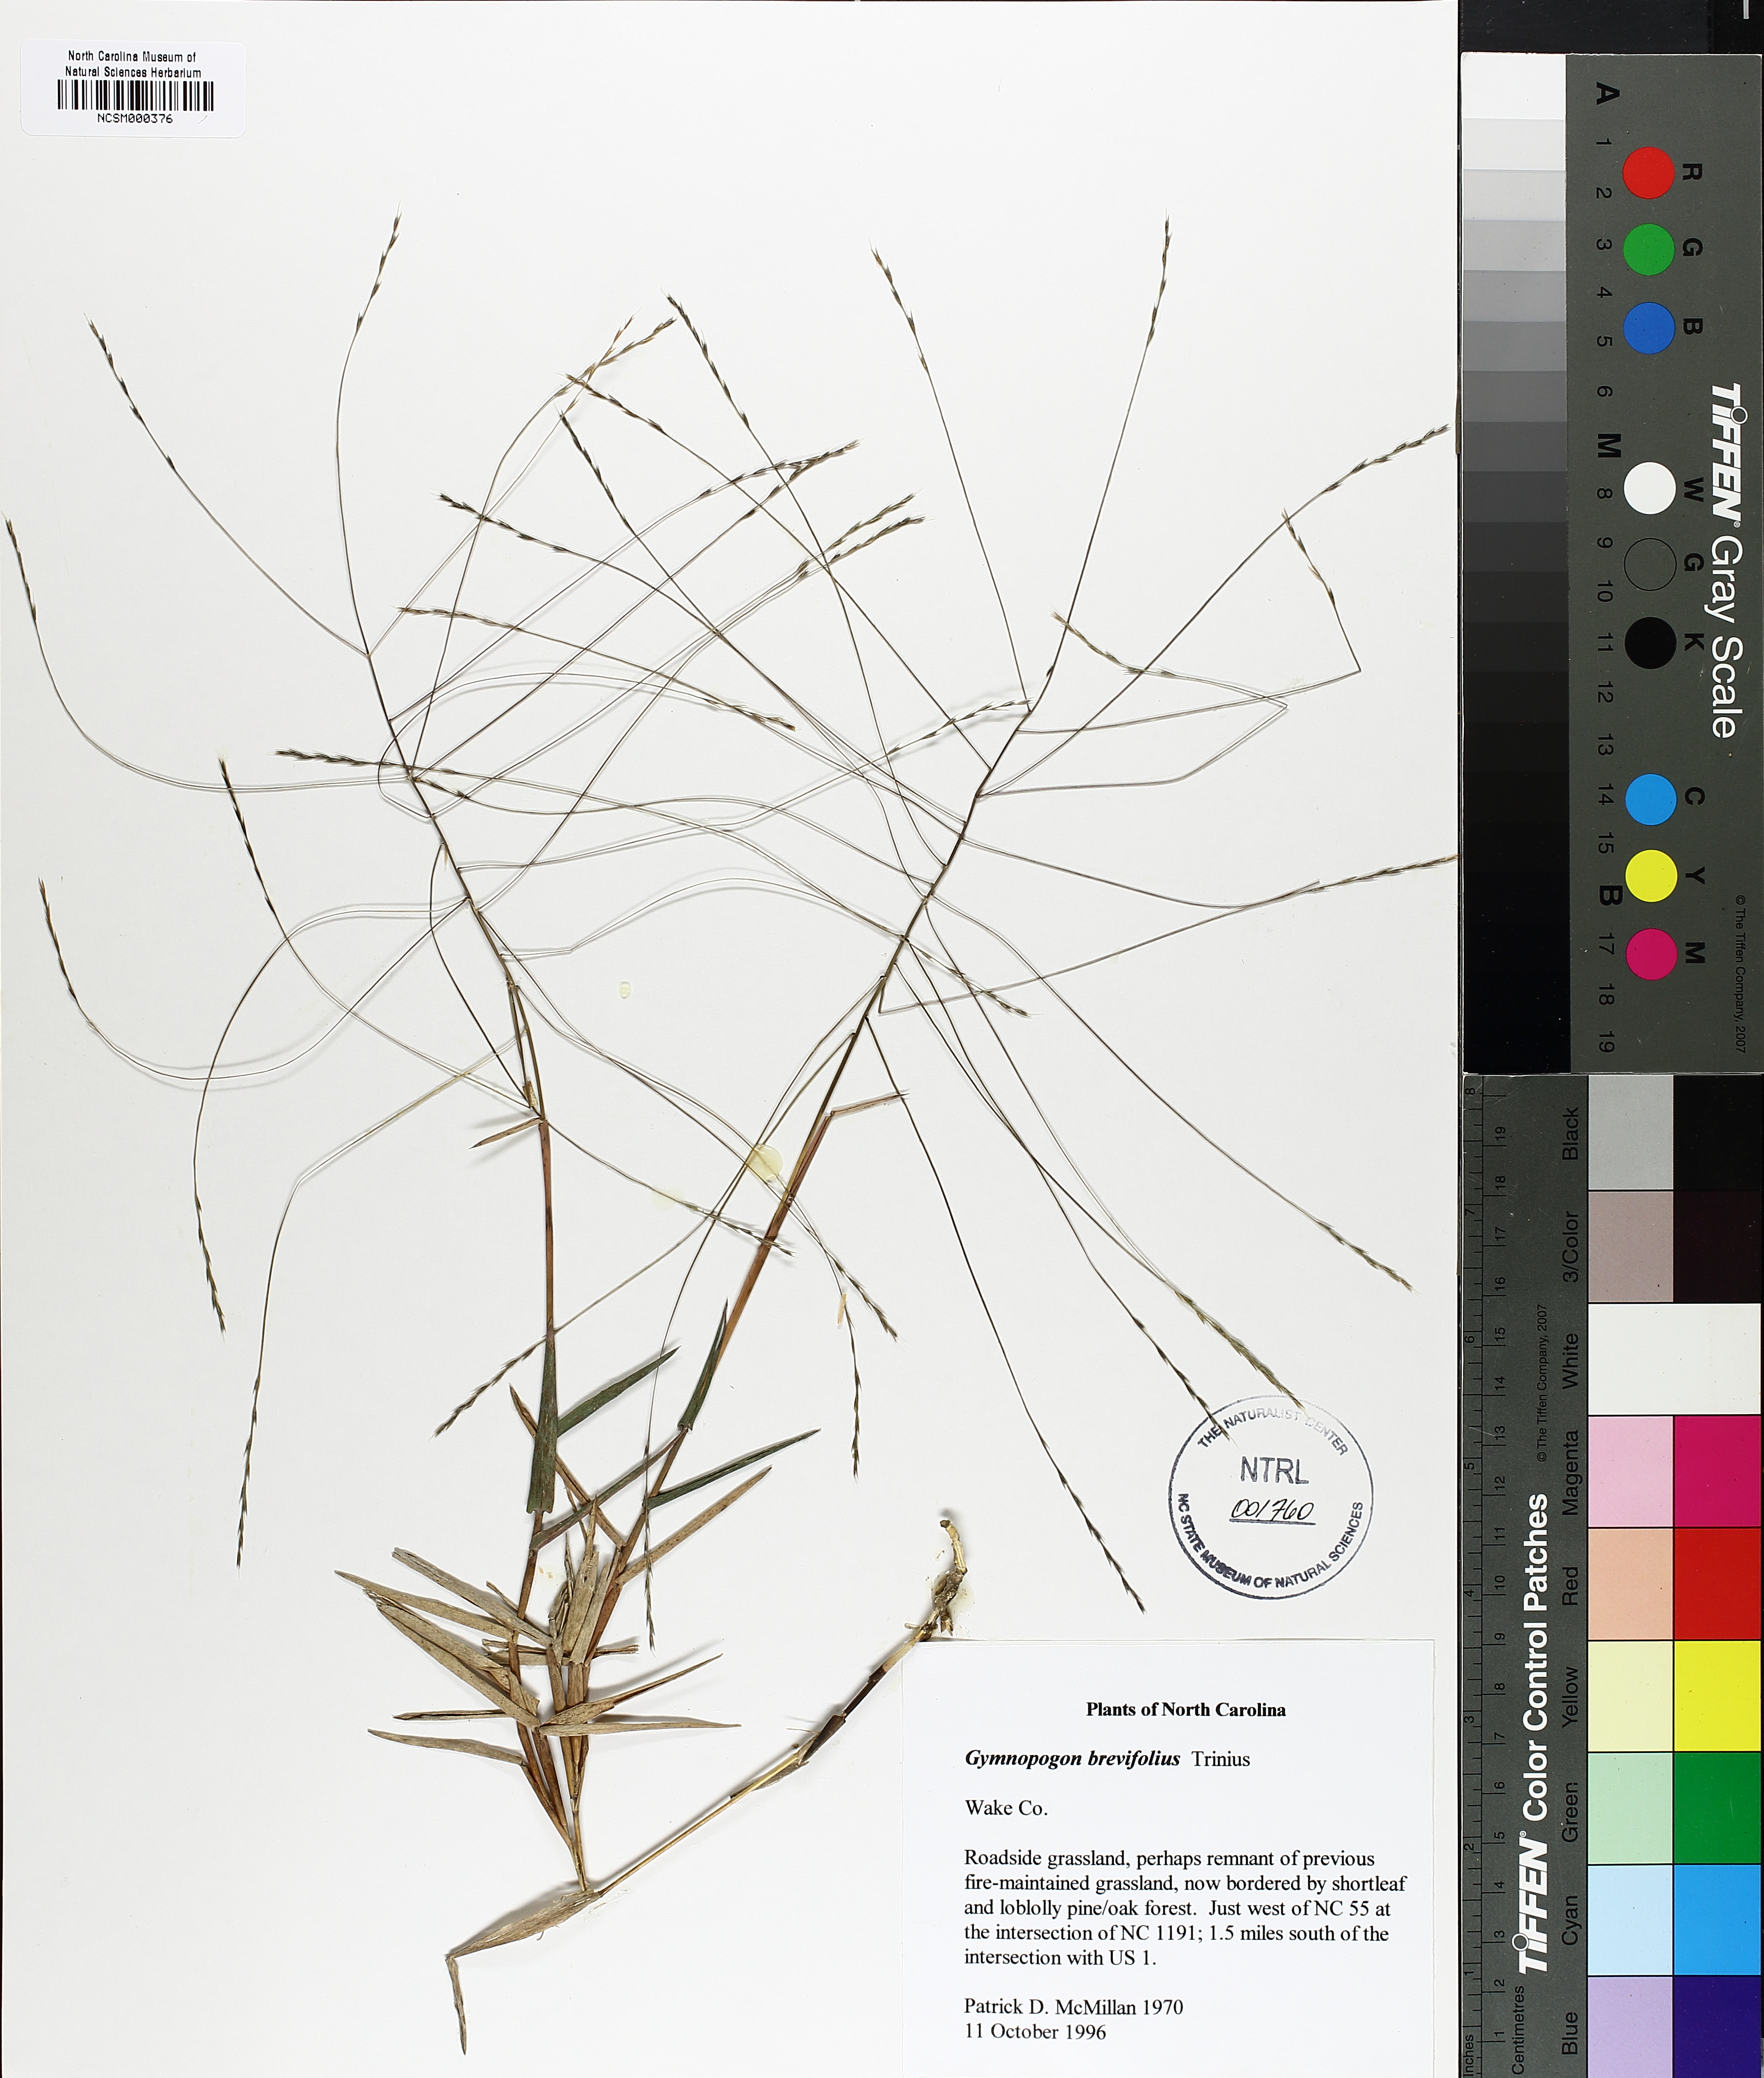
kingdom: Plantae
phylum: Tracheophyta
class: Liliopsida
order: Poales
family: Poaceae
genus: Gymnopogon
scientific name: Gymnopogon brevifolius
